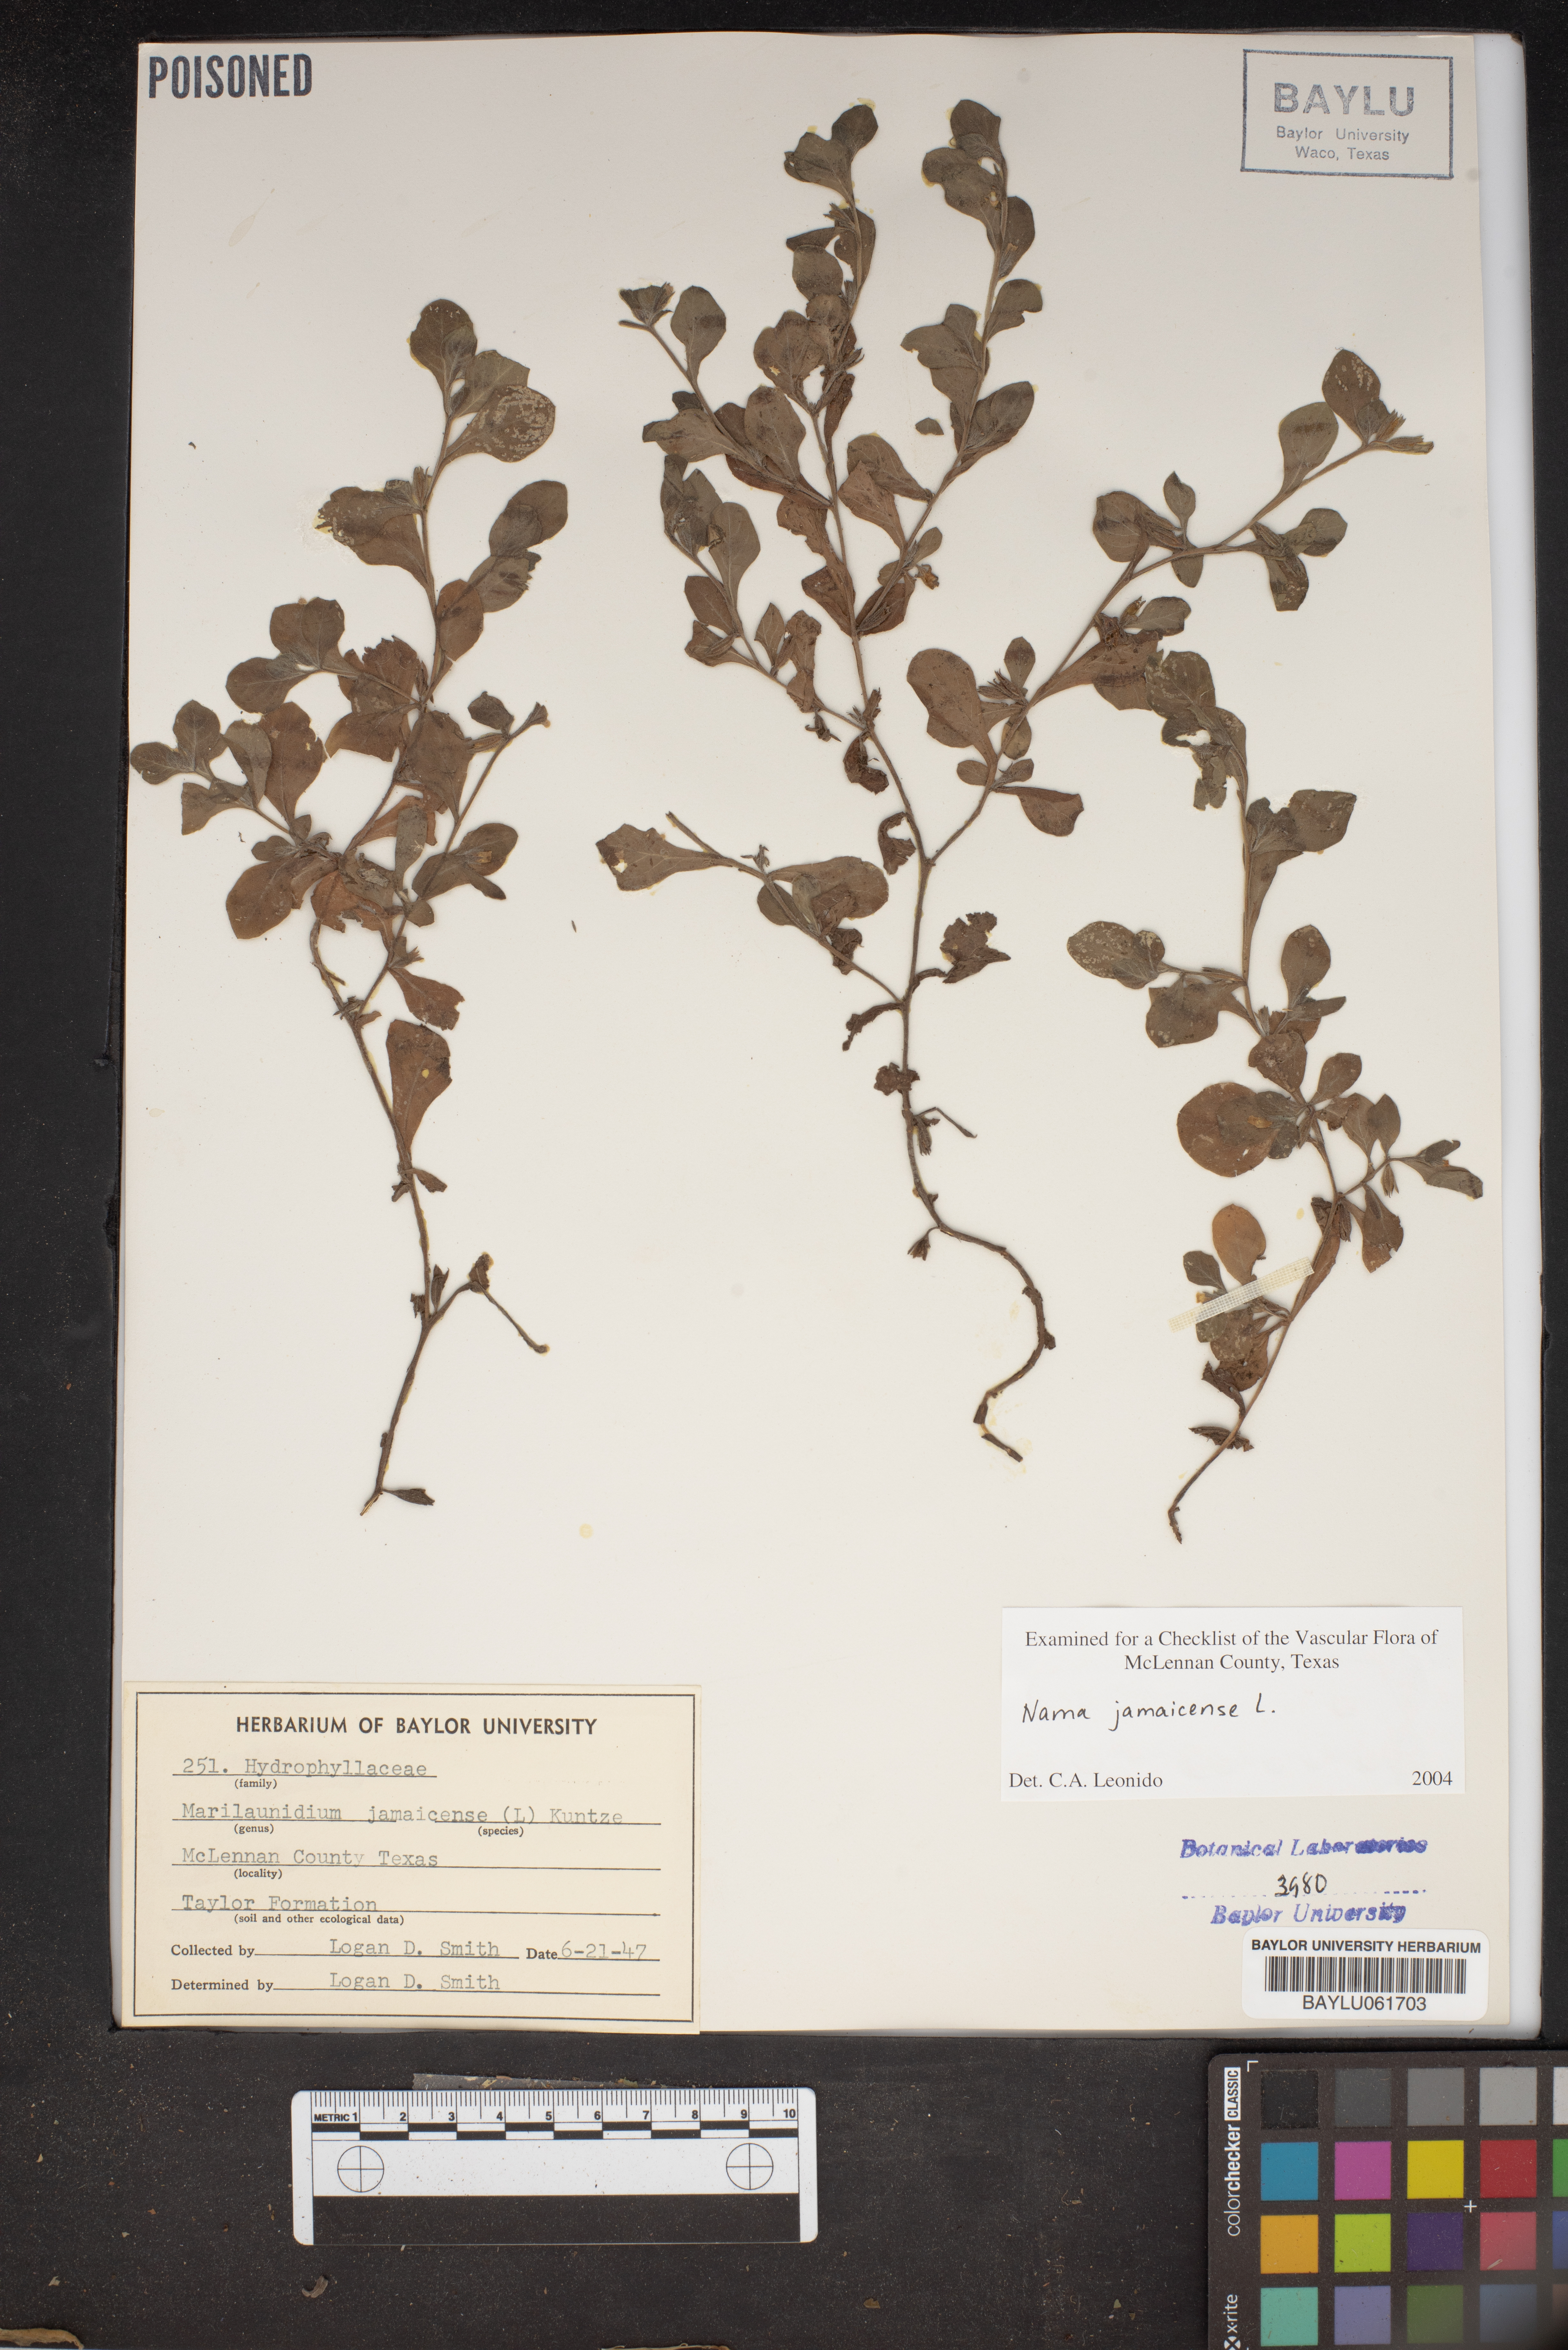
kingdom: Plantae
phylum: Tracheophyta
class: Magnoliopsida
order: Boraginales
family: Namaceae
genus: Nama
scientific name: Nama jamaicense
